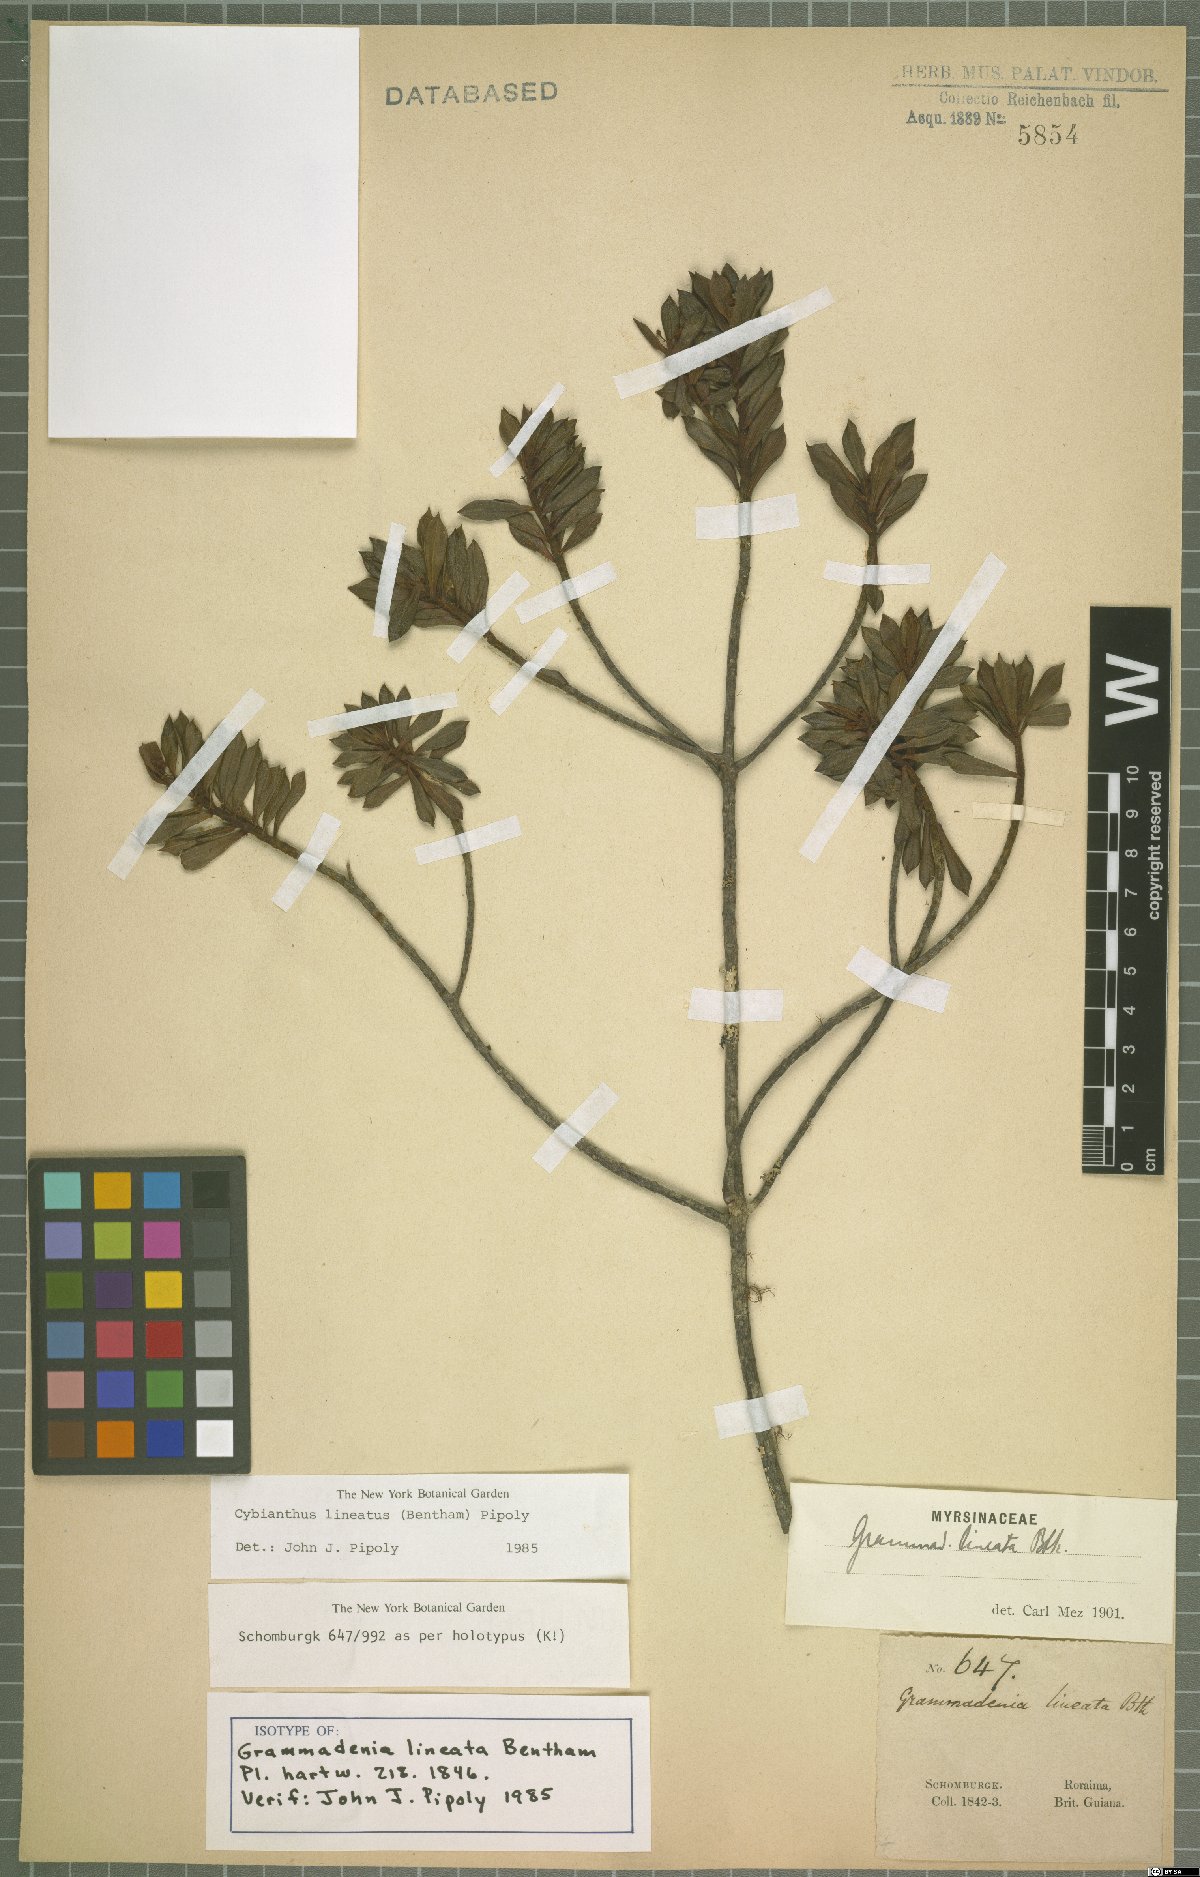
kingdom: Plantae
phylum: Tracheophyta
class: Magnoliopsida
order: Ericales
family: Primulaceae
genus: Cybianthus
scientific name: Cybianthus lineatus
